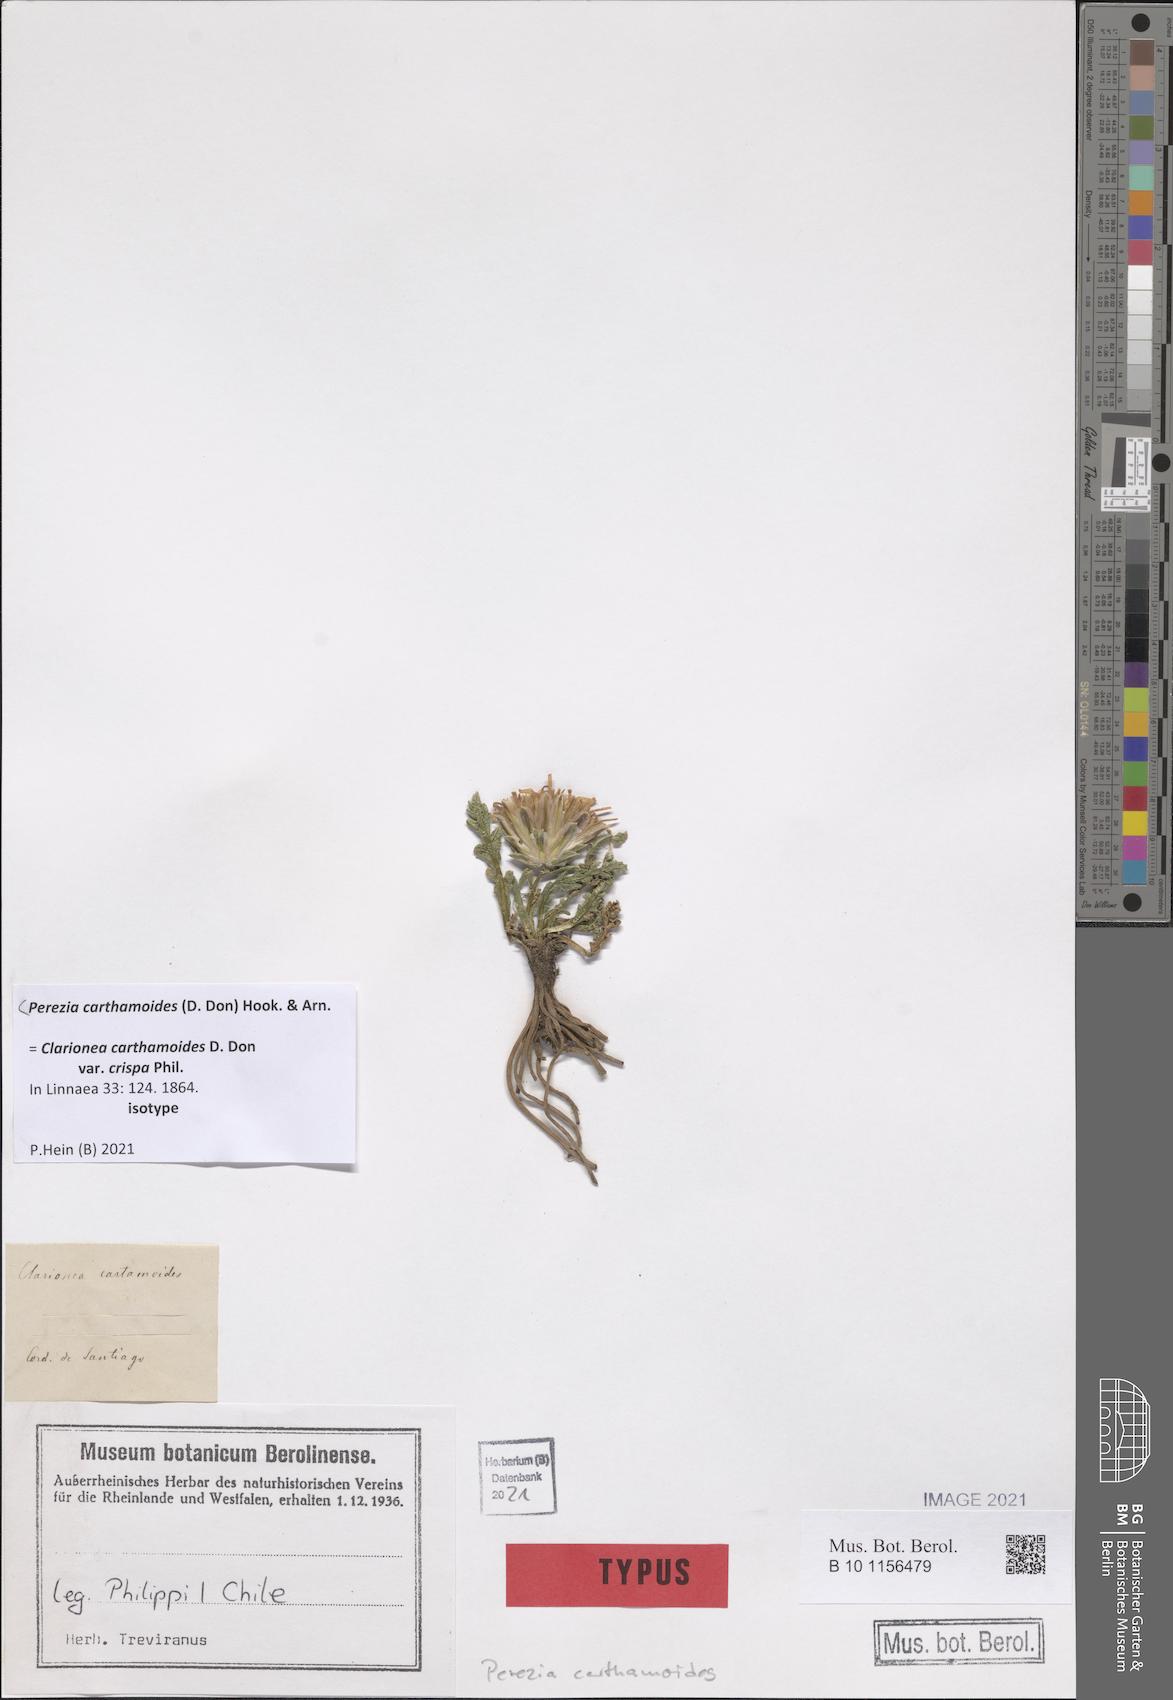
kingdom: Plantae
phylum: Tracheophyta
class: Magnoliopsida
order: Asterales
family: Asteraceae
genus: Perezia
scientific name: Perezia carthamoides
